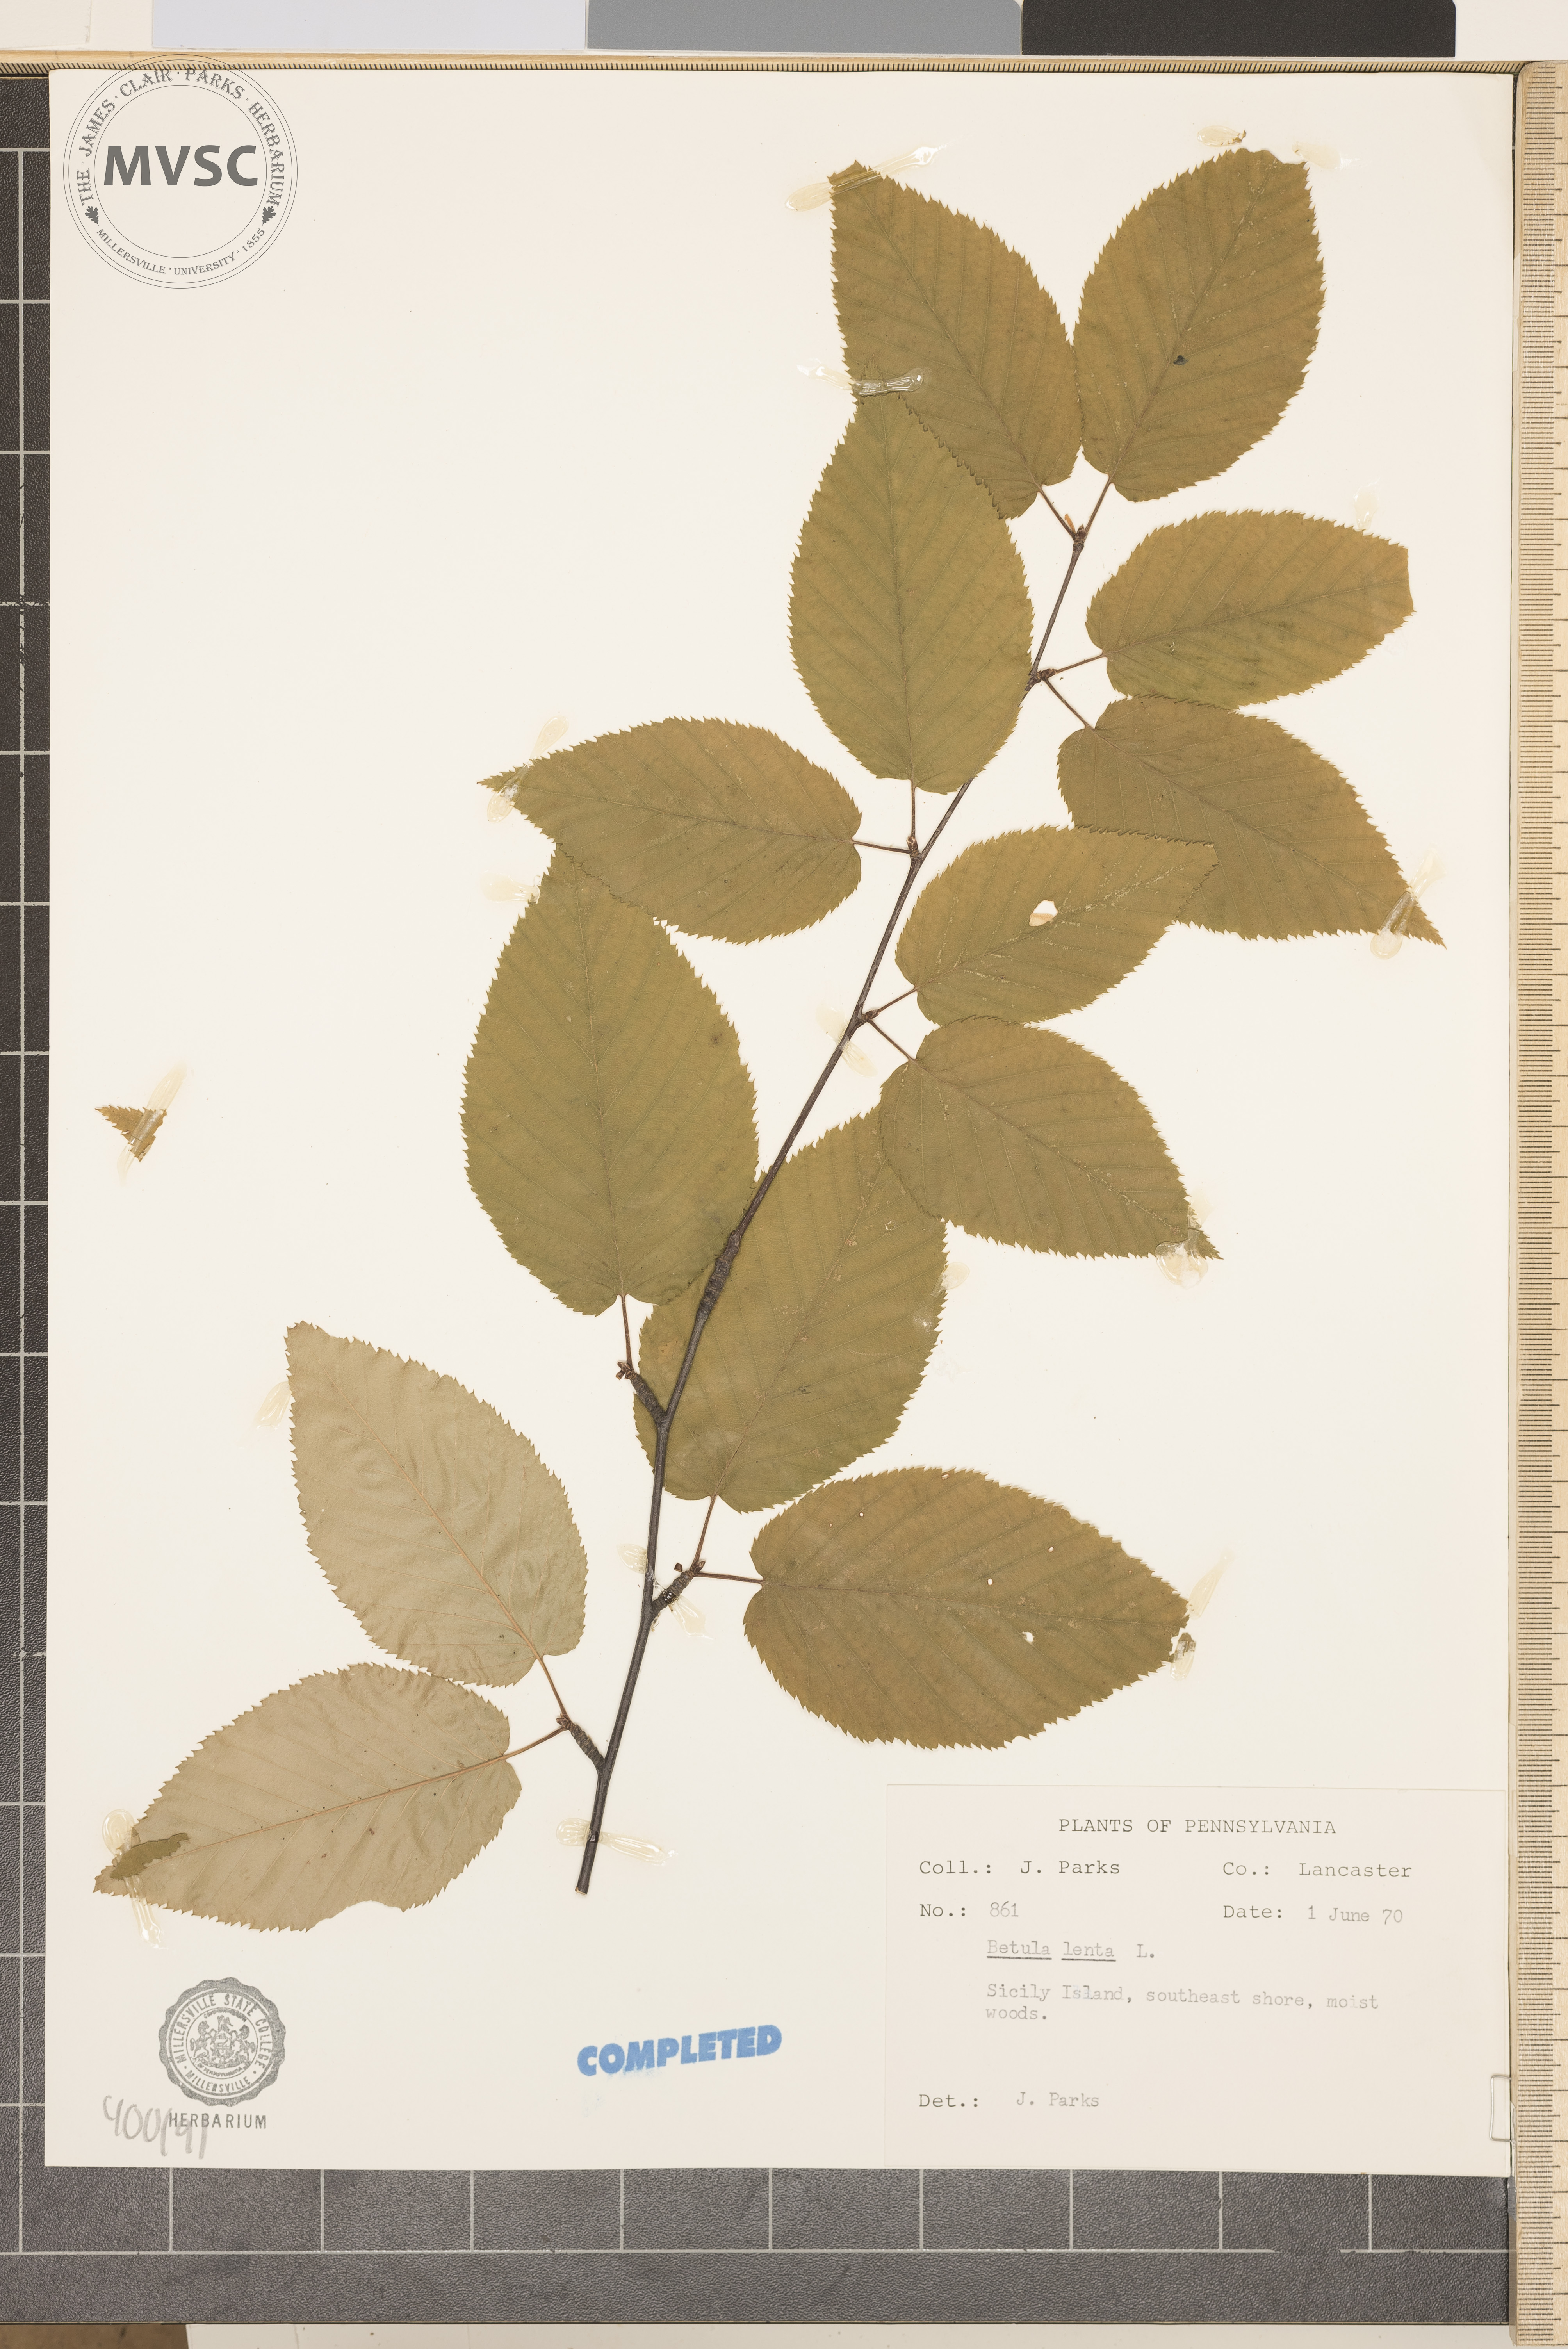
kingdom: Plantae
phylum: Tracheophyta
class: Magnoliopsida
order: Fagales
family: Betulaceae
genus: Betula
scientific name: Betula lenta
